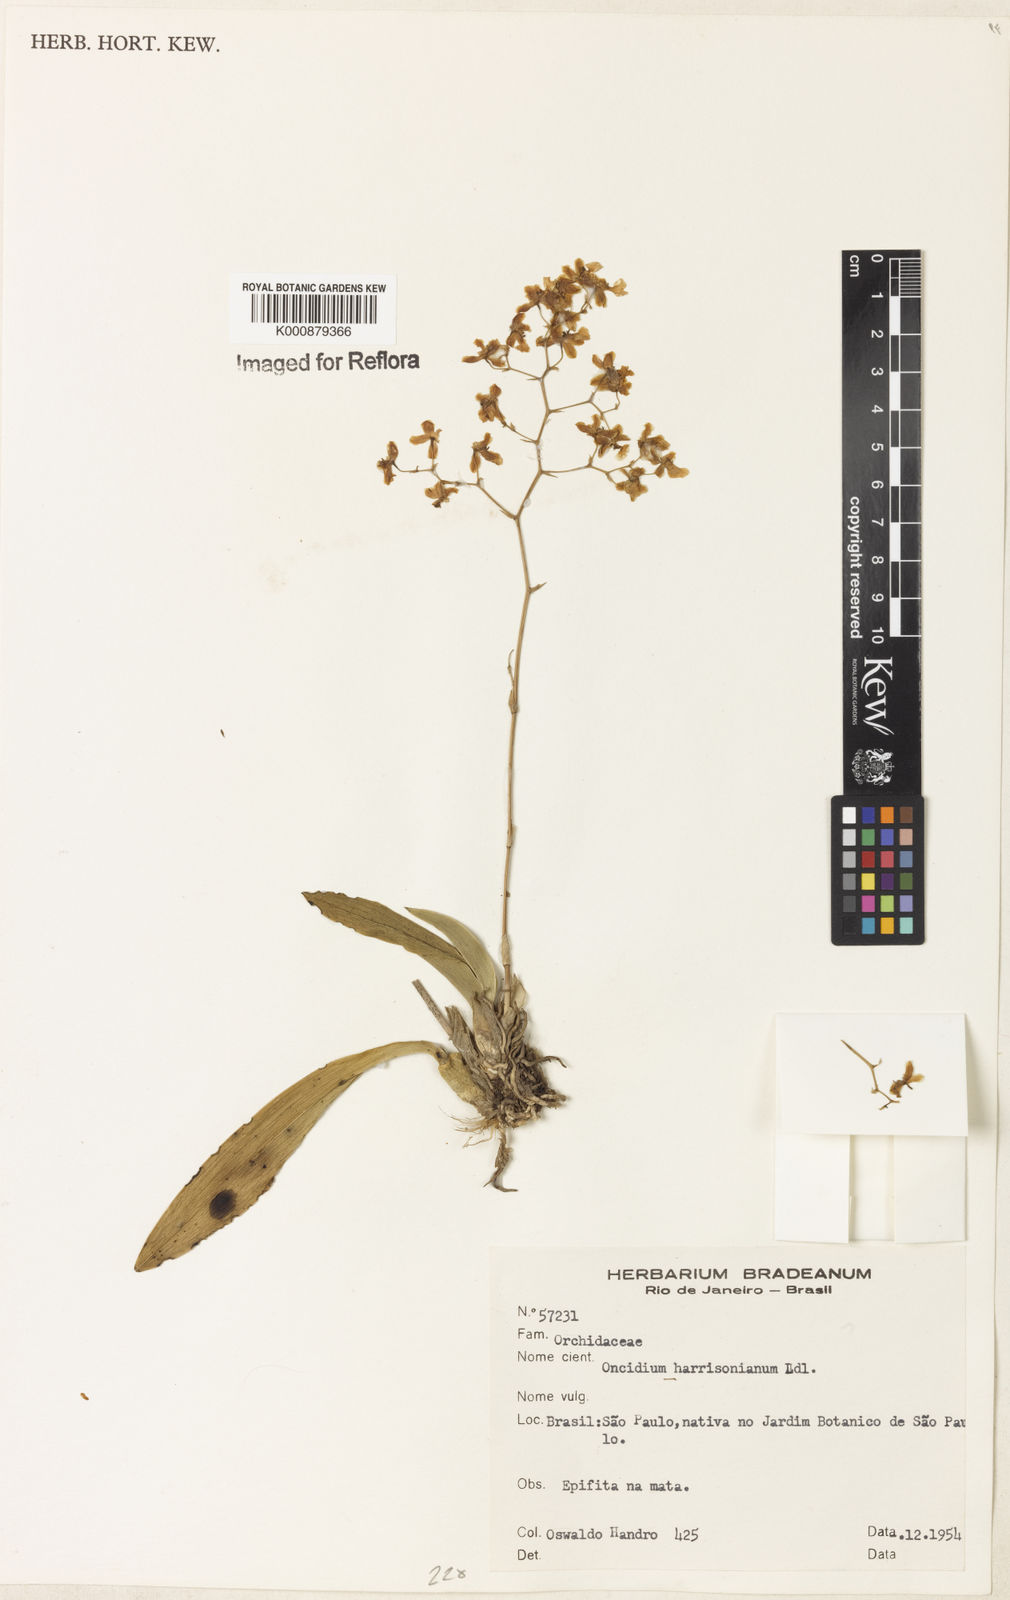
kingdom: Plantae
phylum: Tracheophyta
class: Liliopsida
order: Asparagales
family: Orchidaceae
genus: Grandiphyllum
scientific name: Grandiphyllum auricula
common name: Mule-ear orchid
